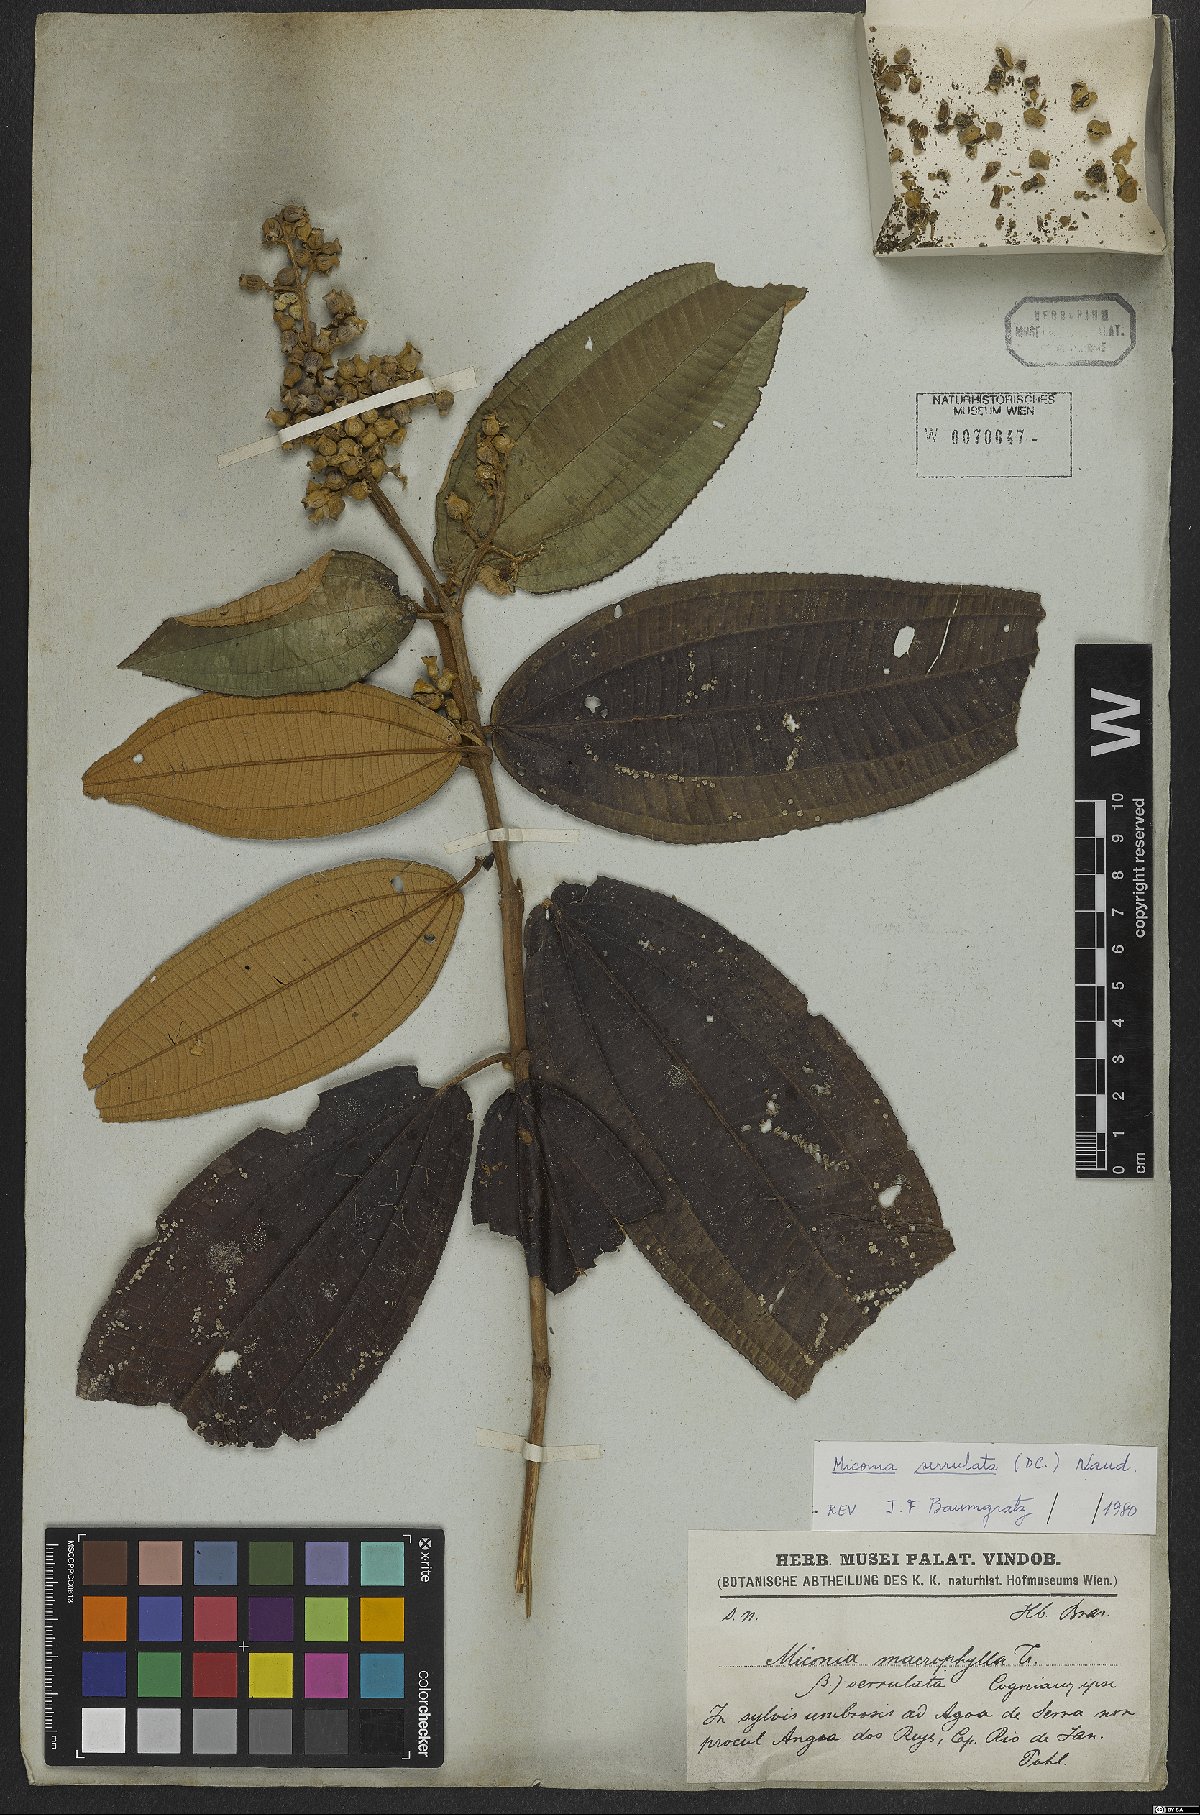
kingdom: Plantae
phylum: Tracheophyta
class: Magnoliopsida
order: Myrtales
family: Melastomataceae
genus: Miconia
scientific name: Miconia serrulata
